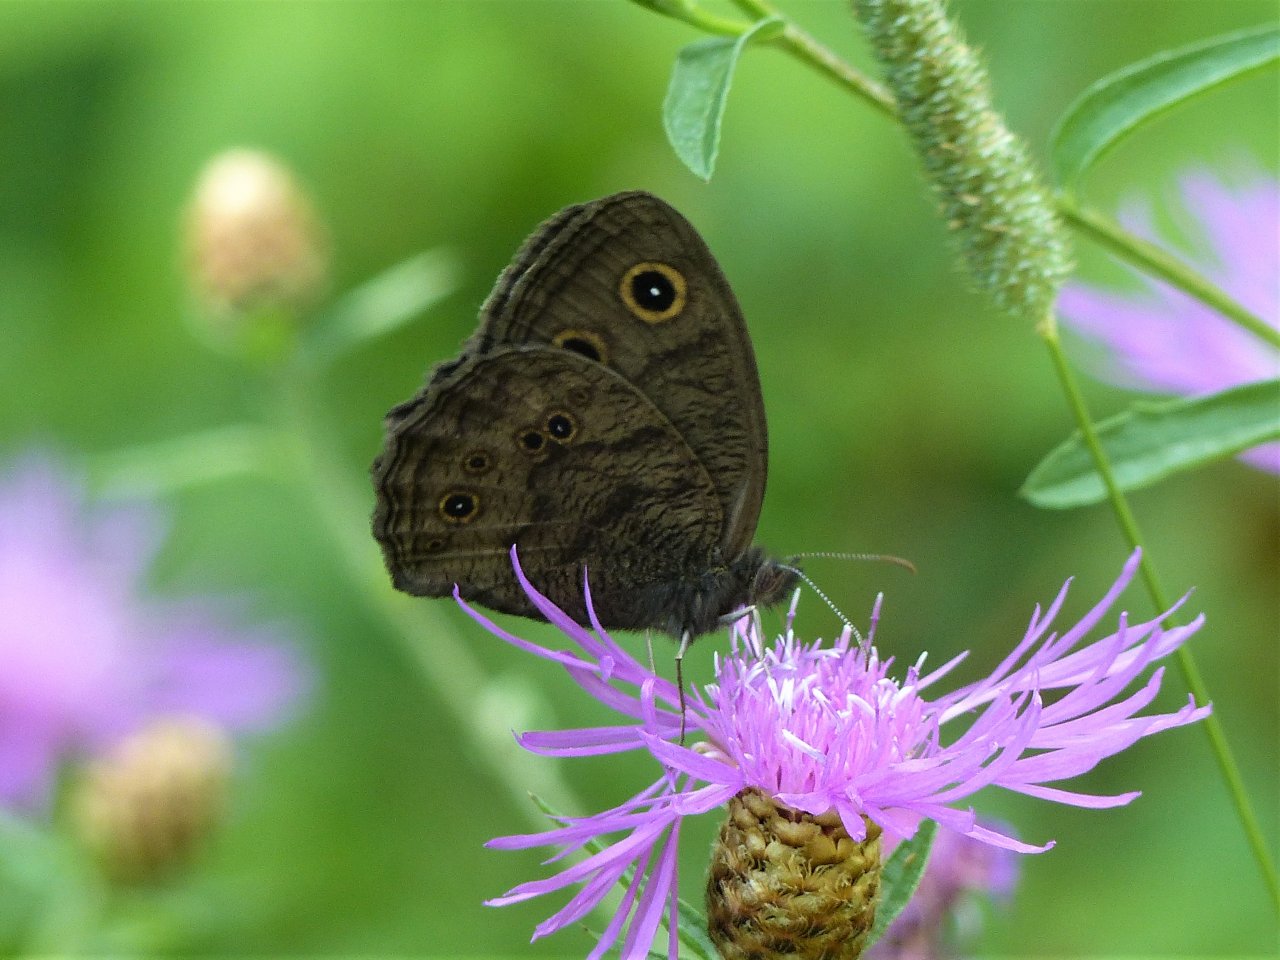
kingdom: Animalia
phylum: Arthropoda
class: Insecta
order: Lepidoptera
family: Nymphalidae
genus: Cercyonis
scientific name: Cercyonis pegala
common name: Common Wood-Nymph
